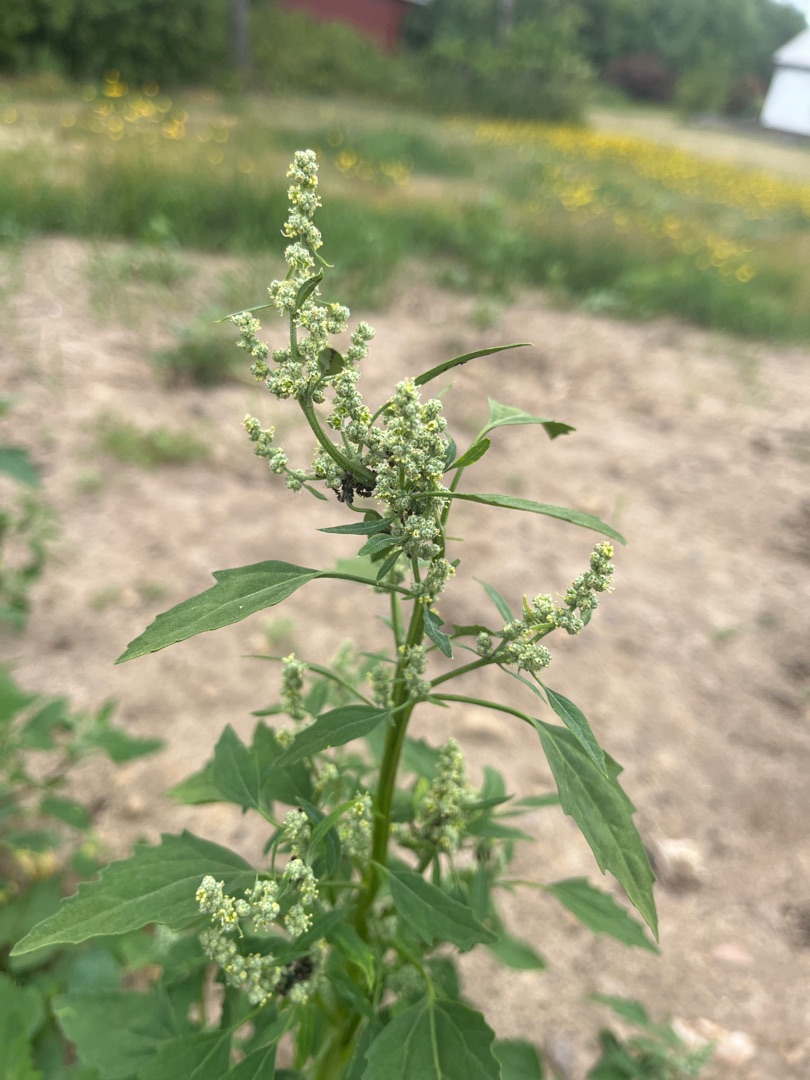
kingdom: Plantae
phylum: Tracheophyta
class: Magnoliopsida
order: Caryophyllales
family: Amaranthaceae
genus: Chenopodium
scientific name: Chenopodium album
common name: Hvidmelet gåsefod
